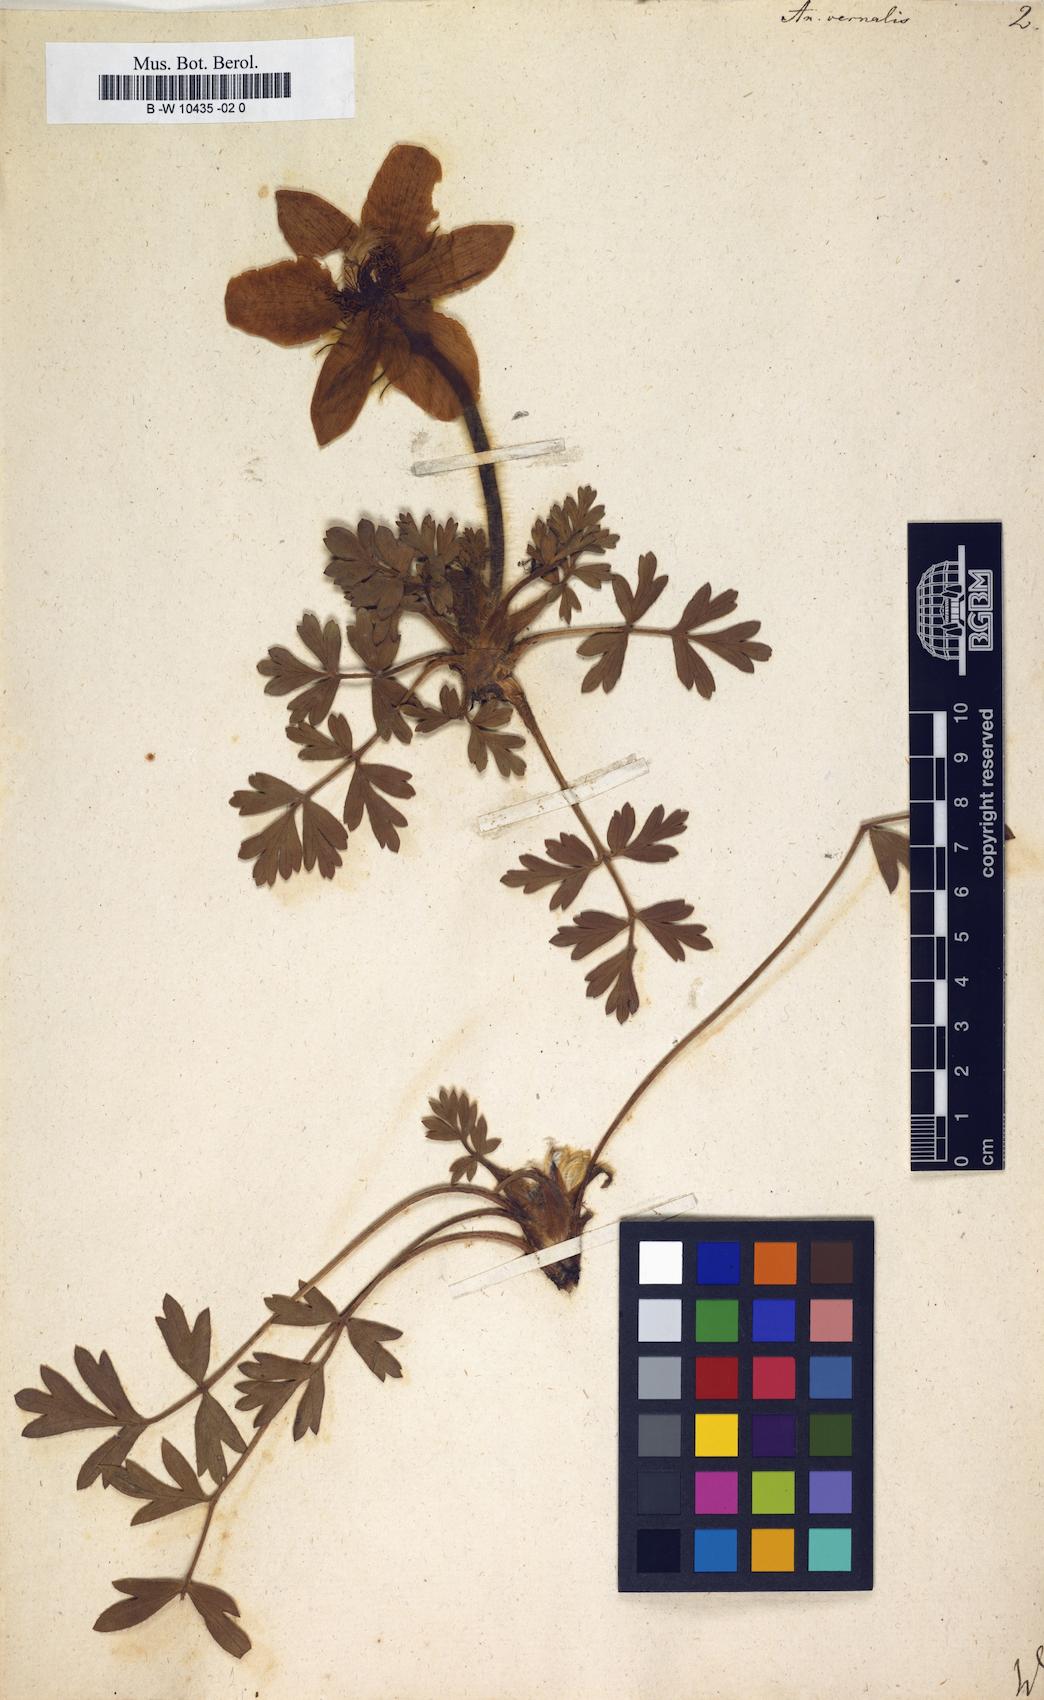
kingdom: Plantae
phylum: Tracheophyta
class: Magnoliopsida
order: Ranunculales
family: Ranunculaceae
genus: Pulsatilla
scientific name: Pulsatilla vernalis
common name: Spring pasque flower
